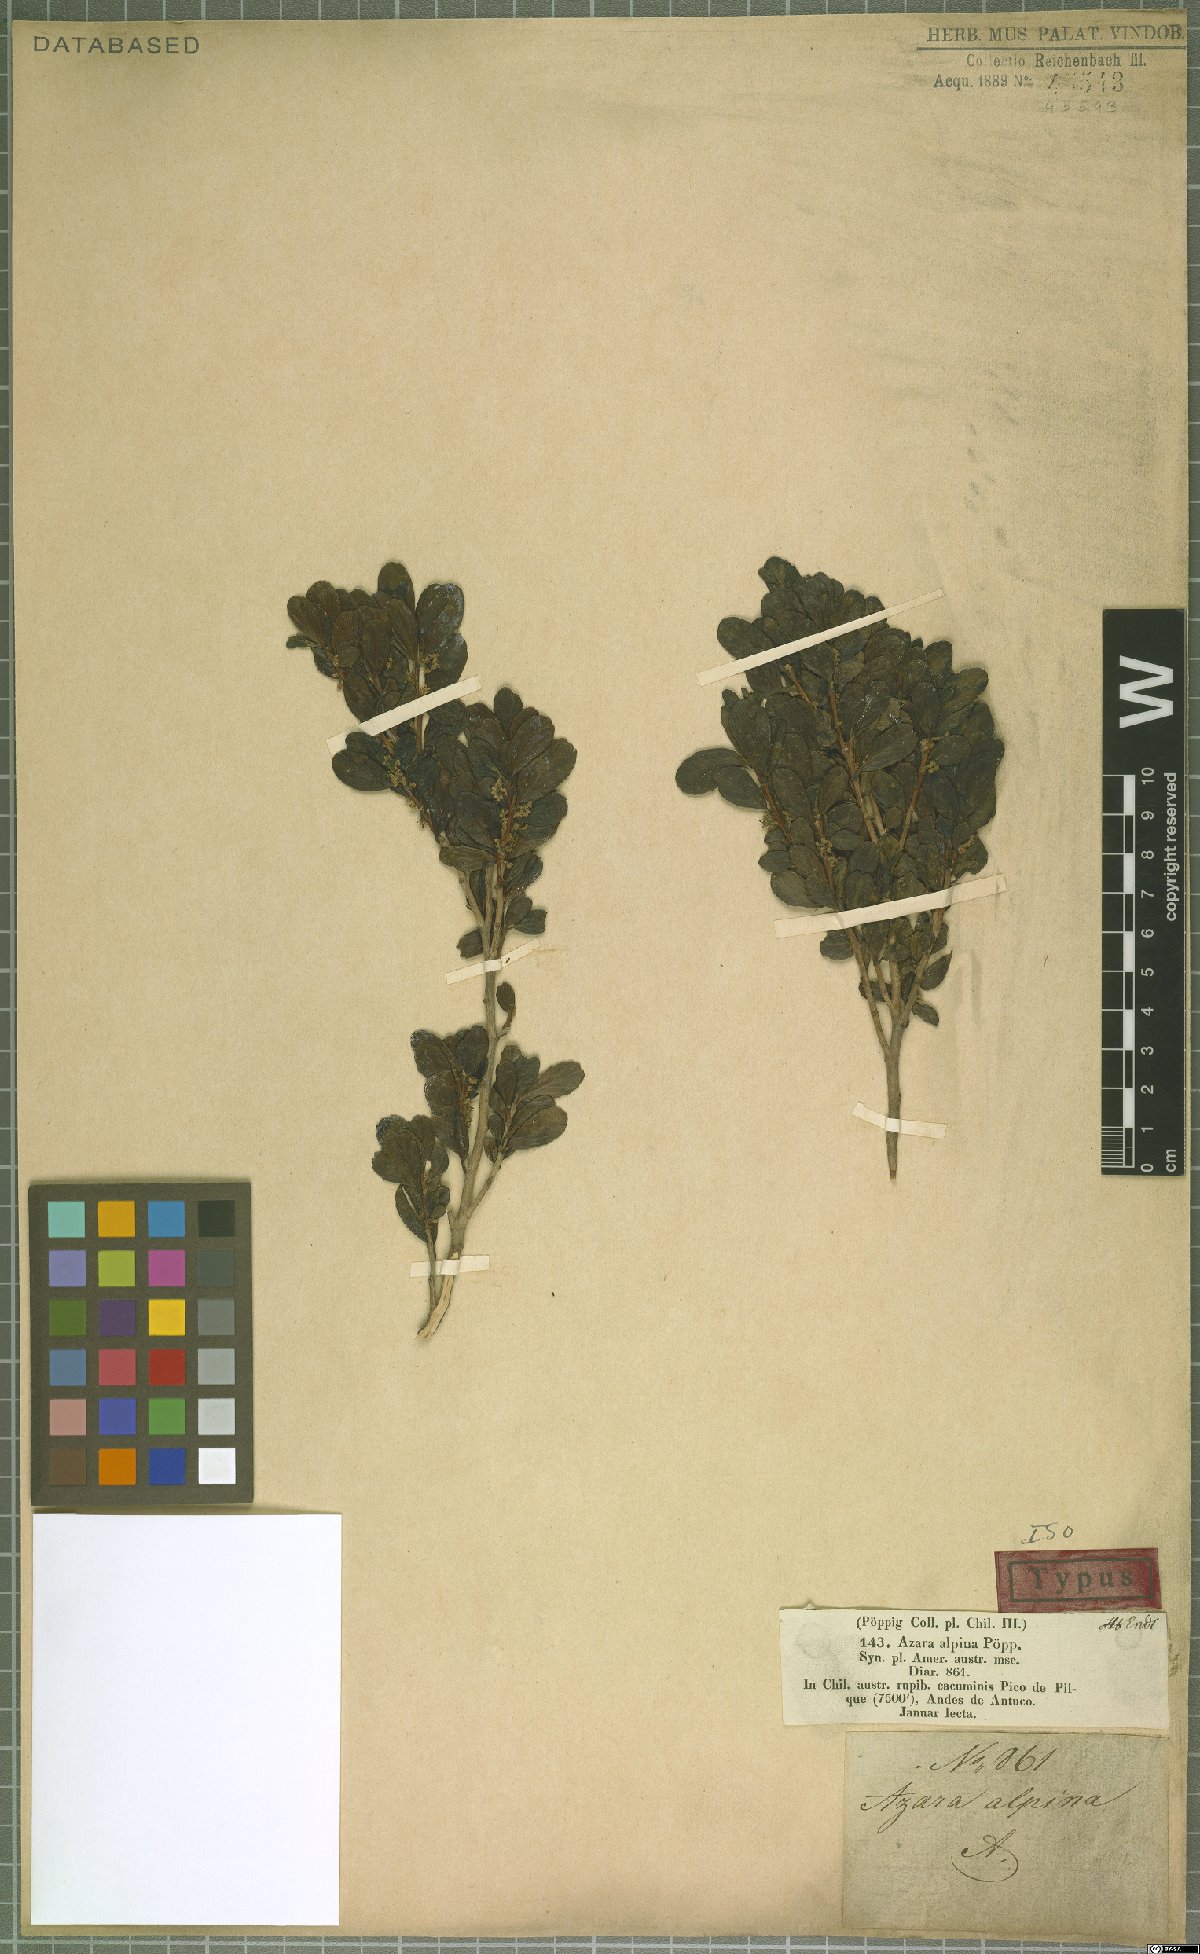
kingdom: Plantae
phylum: Tracheophyta
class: Magnoliopsida
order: Malpighiales
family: Salicaceae
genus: Azara
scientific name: Azara alpina
